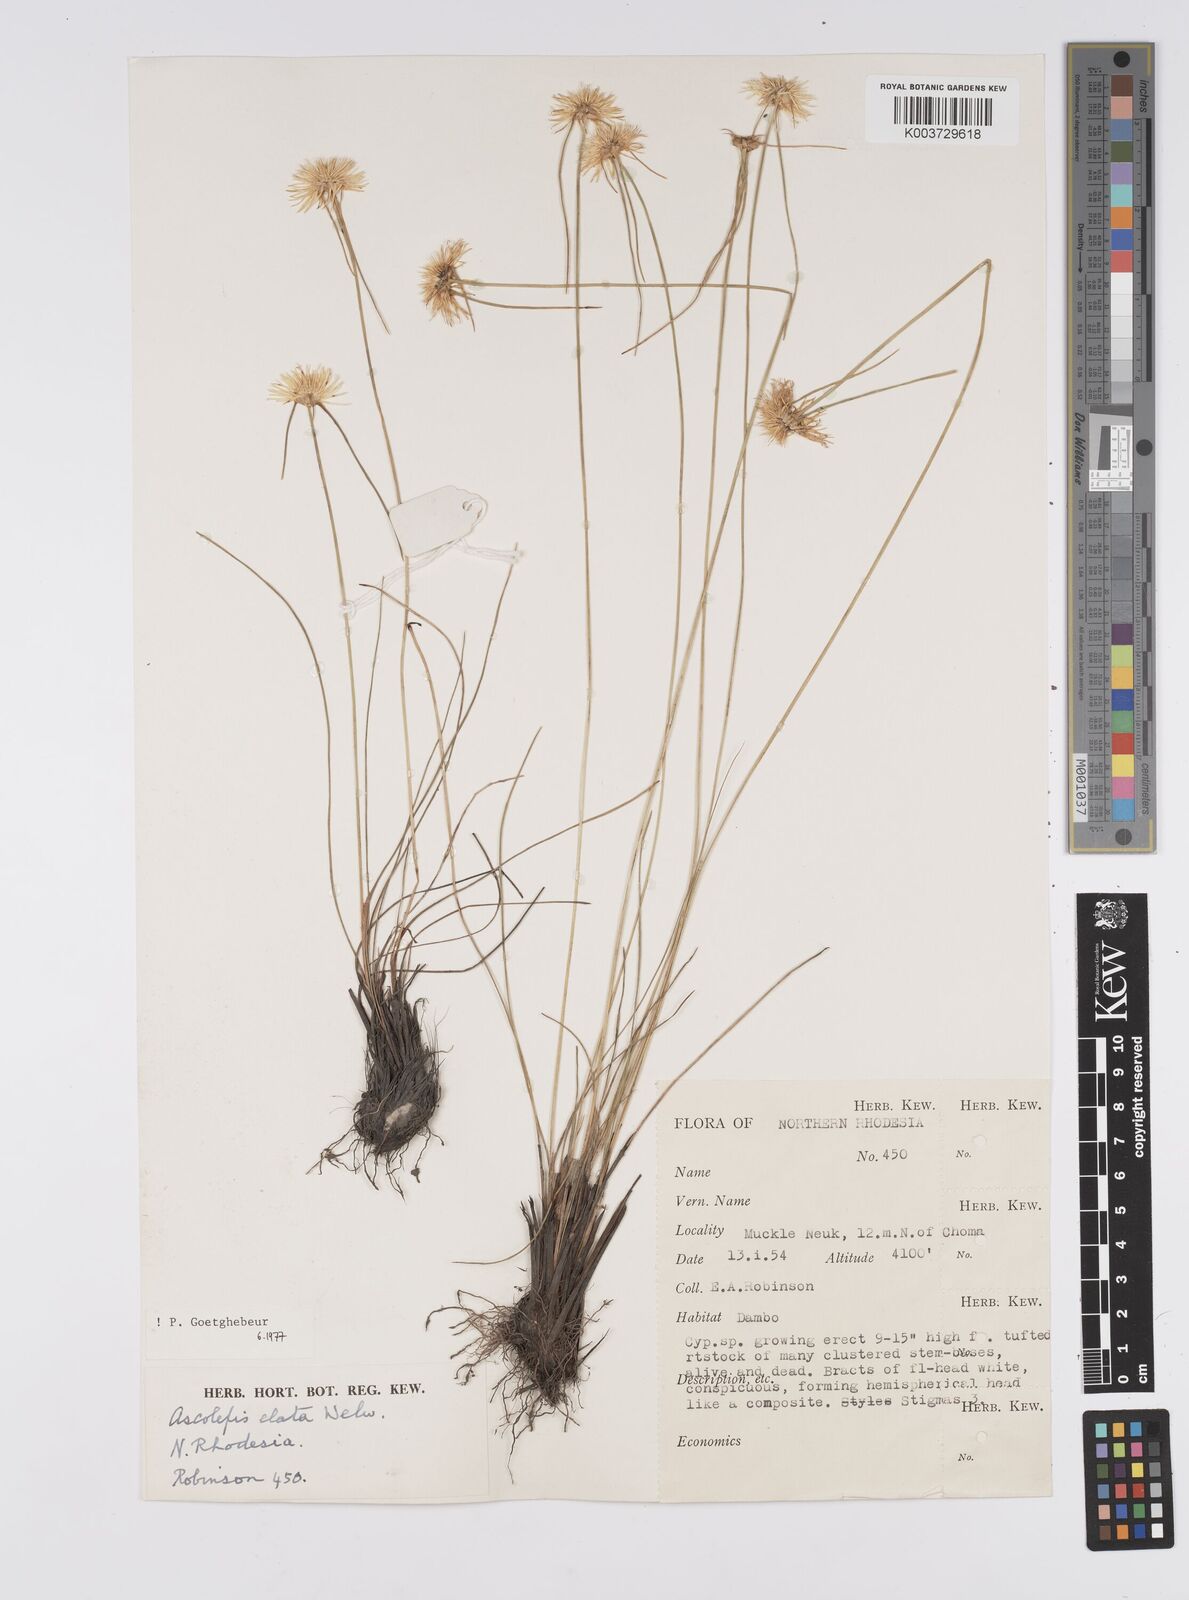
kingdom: Plantae
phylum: Tracheophyta
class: Liliopsida
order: Poales
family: Cyperaceae
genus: Cyperus
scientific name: Cyperus
